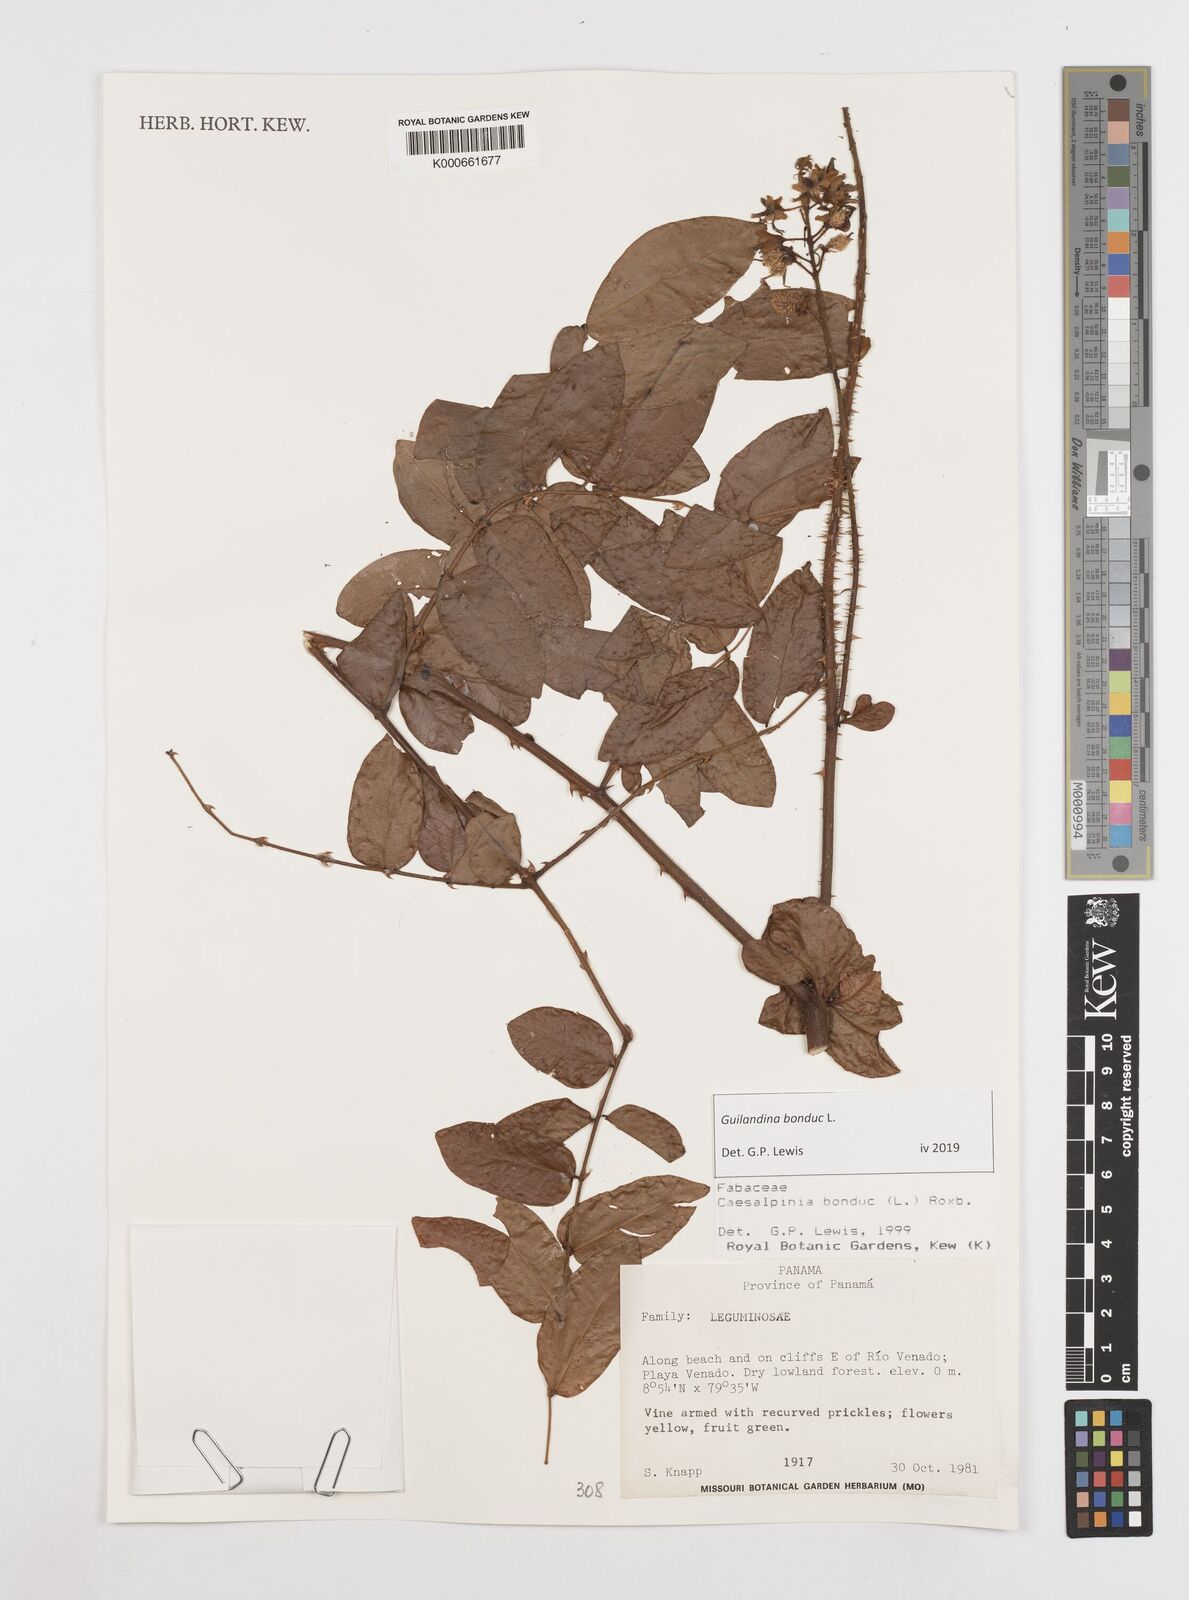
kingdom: Plantae
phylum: Tracheophyta
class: Magnoliopsida
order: Fabales
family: Fabaceae
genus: Guilandina
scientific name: Guilandina bonduc
